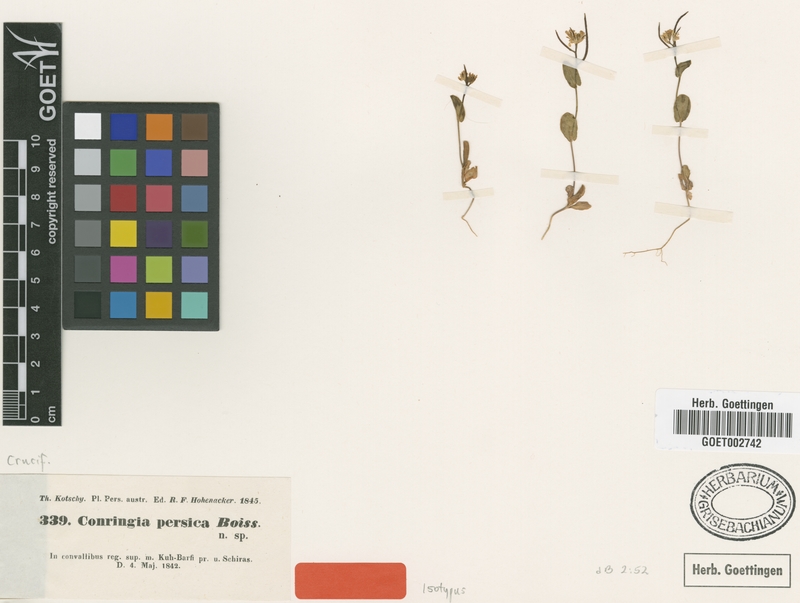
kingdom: Plantae
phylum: Tracheophyta
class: Magnoliopsida
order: Brassicales
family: Brassicaceae
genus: Conringia
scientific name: Conringia persica
